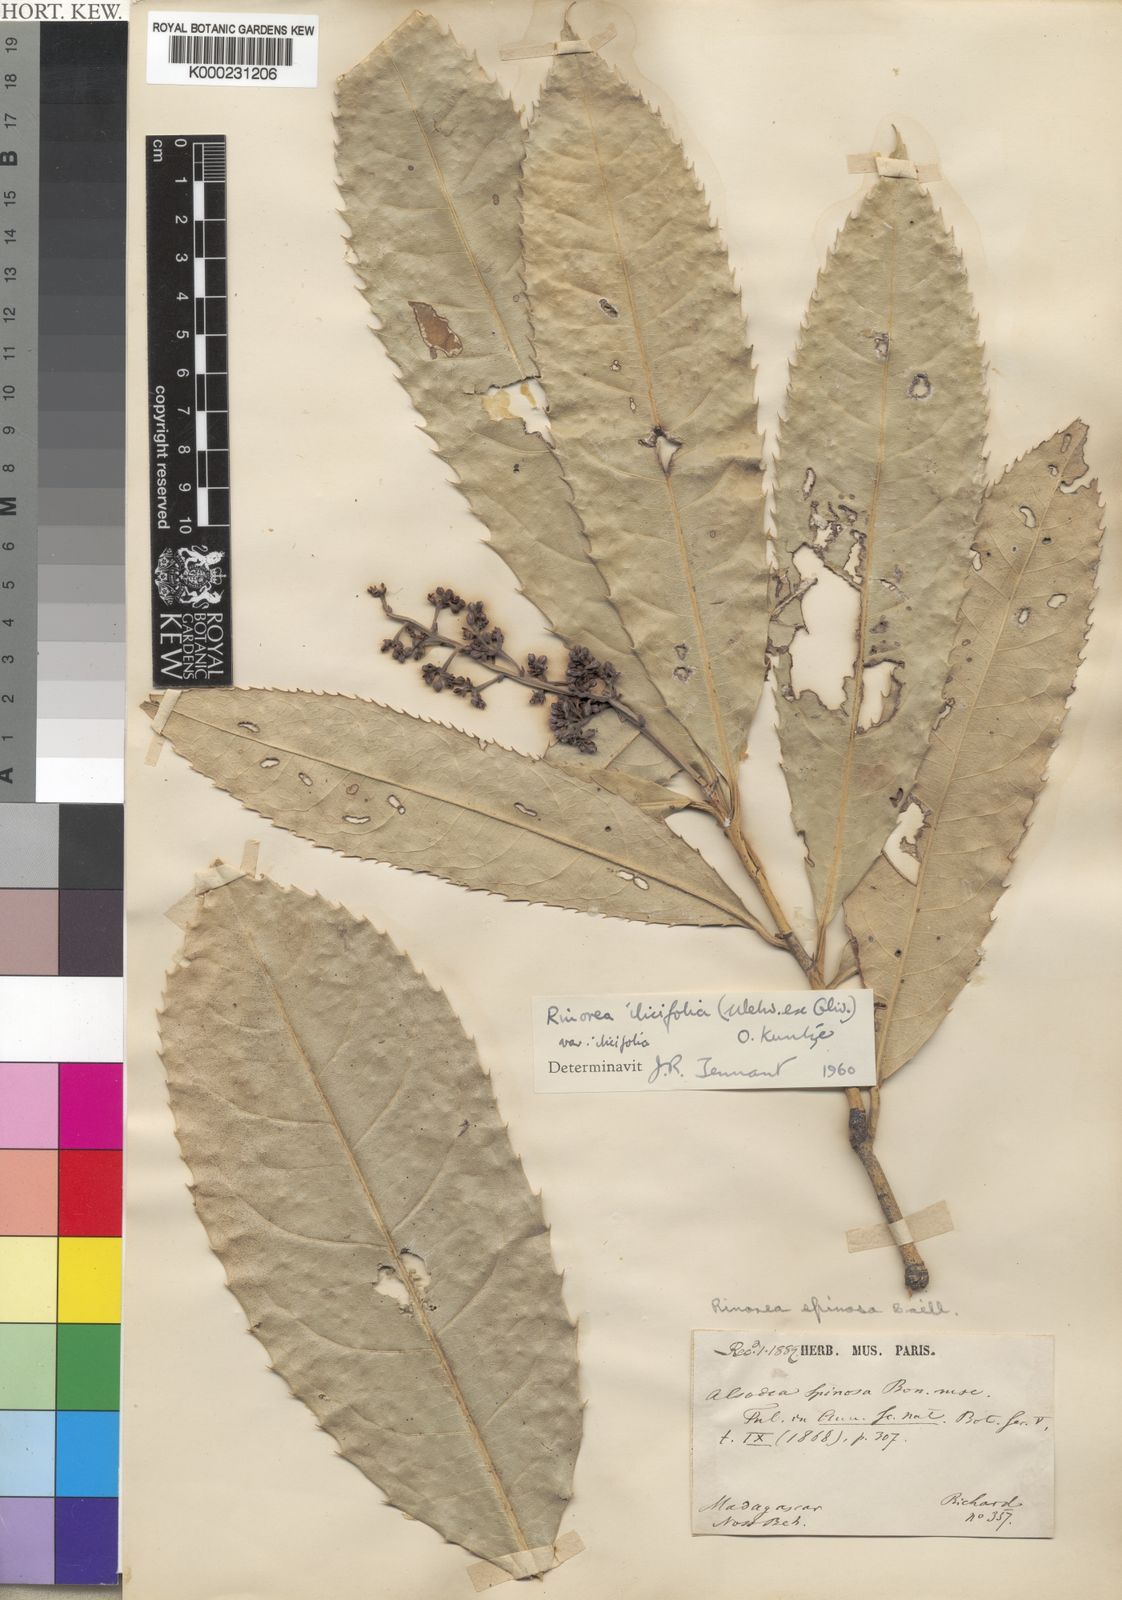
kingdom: Plantae
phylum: Tracheophyta
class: Magnoliopsida
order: Malpighiales
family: Violaceae
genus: Rinorea
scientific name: Rinorea ilicifolia
